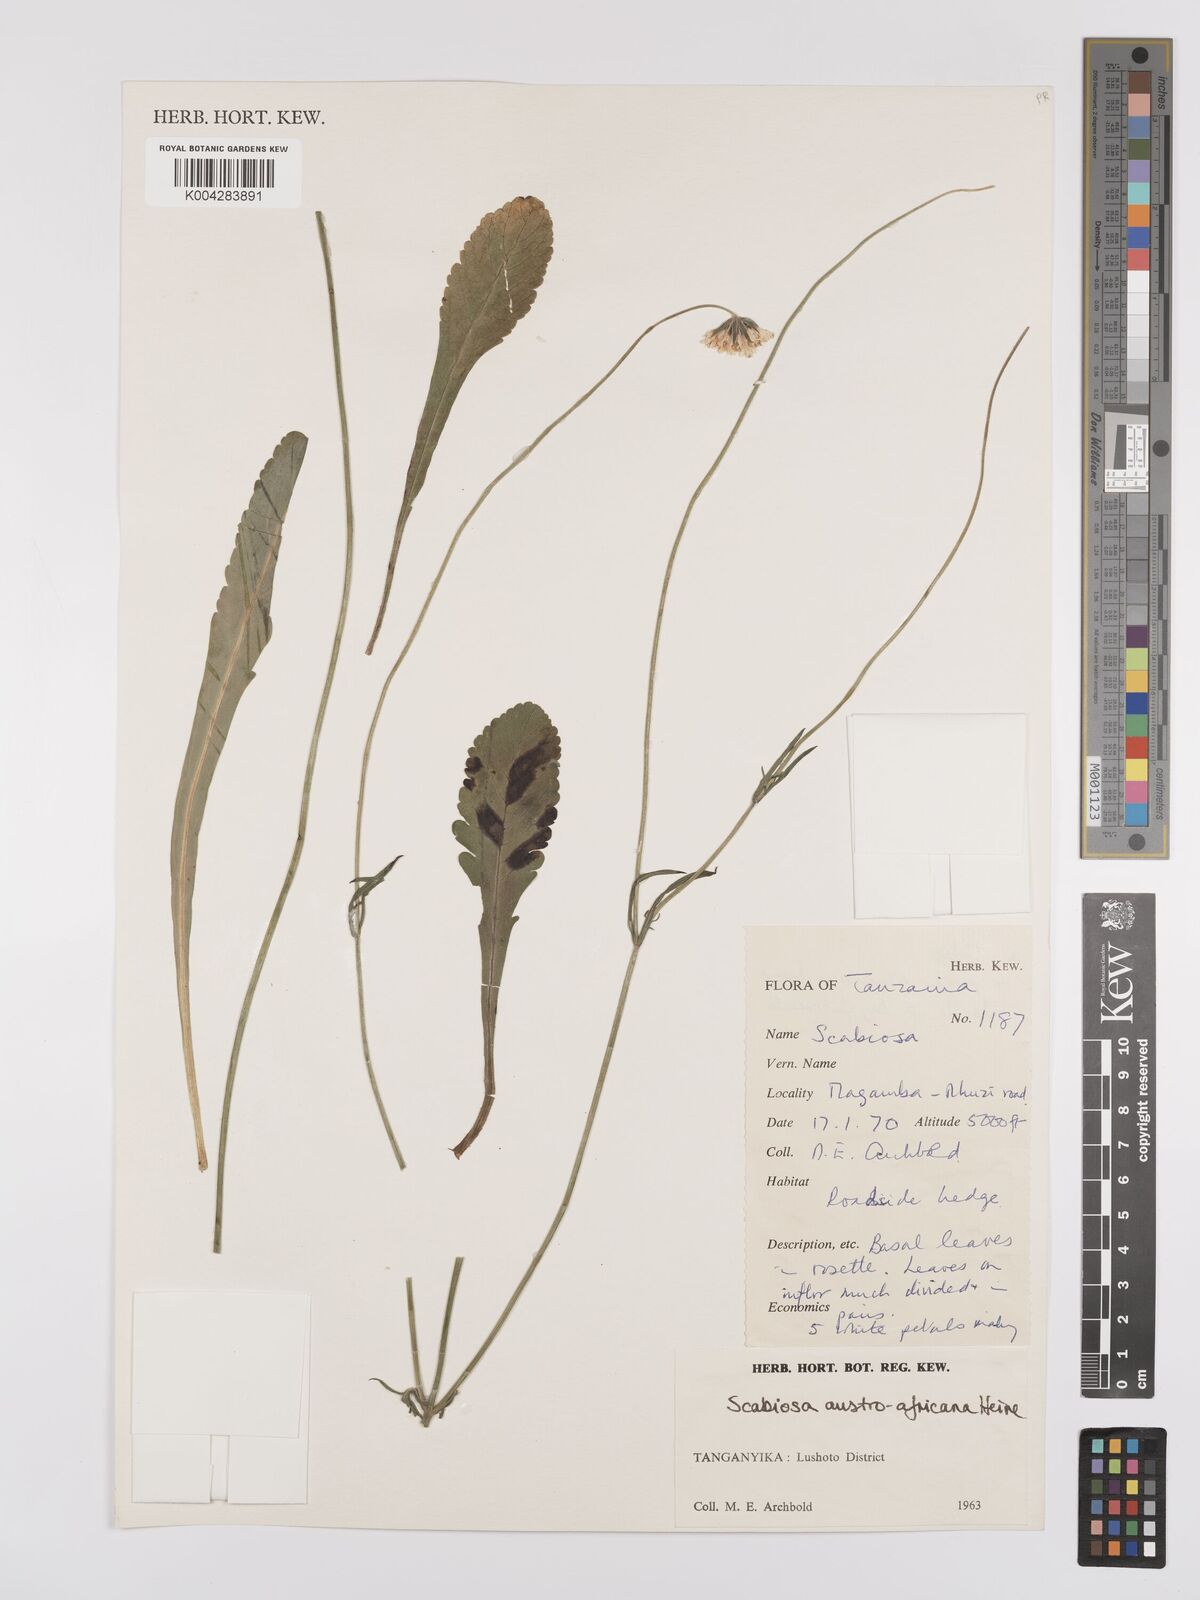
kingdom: Plantae
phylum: Tracheophyta
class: Magnoliopsida
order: Dipsacales
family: Caprifoliaceae
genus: Scabiosa
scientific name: Scabiosa austroafricana
